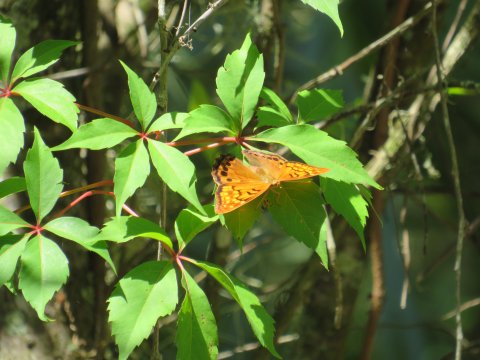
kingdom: Animalia
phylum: Arthropoda
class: Insecta
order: Lepidoptera
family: Nymphalidae
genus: Asterocampa
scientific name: Asterocampa clyton
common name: Tawny Emperor
